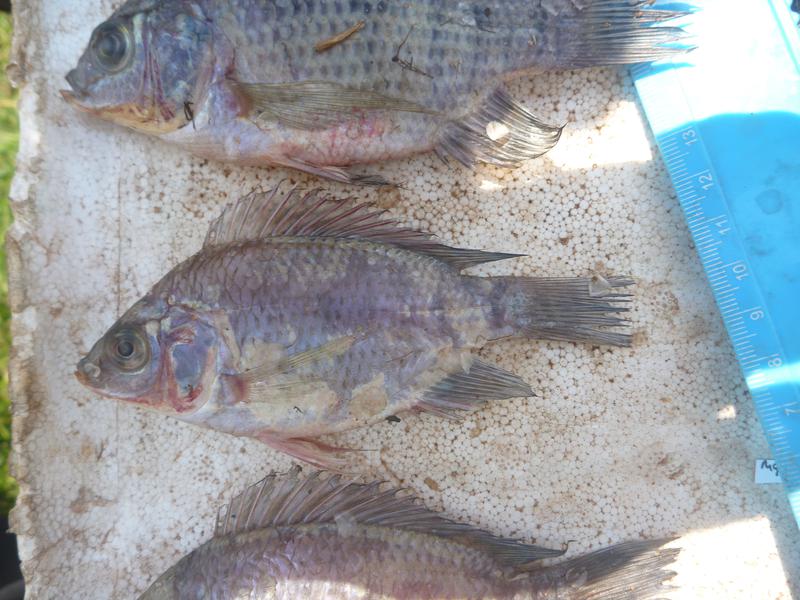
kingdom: Animalia
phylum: Chordata
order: Perciformes
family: Cichlidae
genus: Oreochromis
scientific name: Oreochromis upembae
